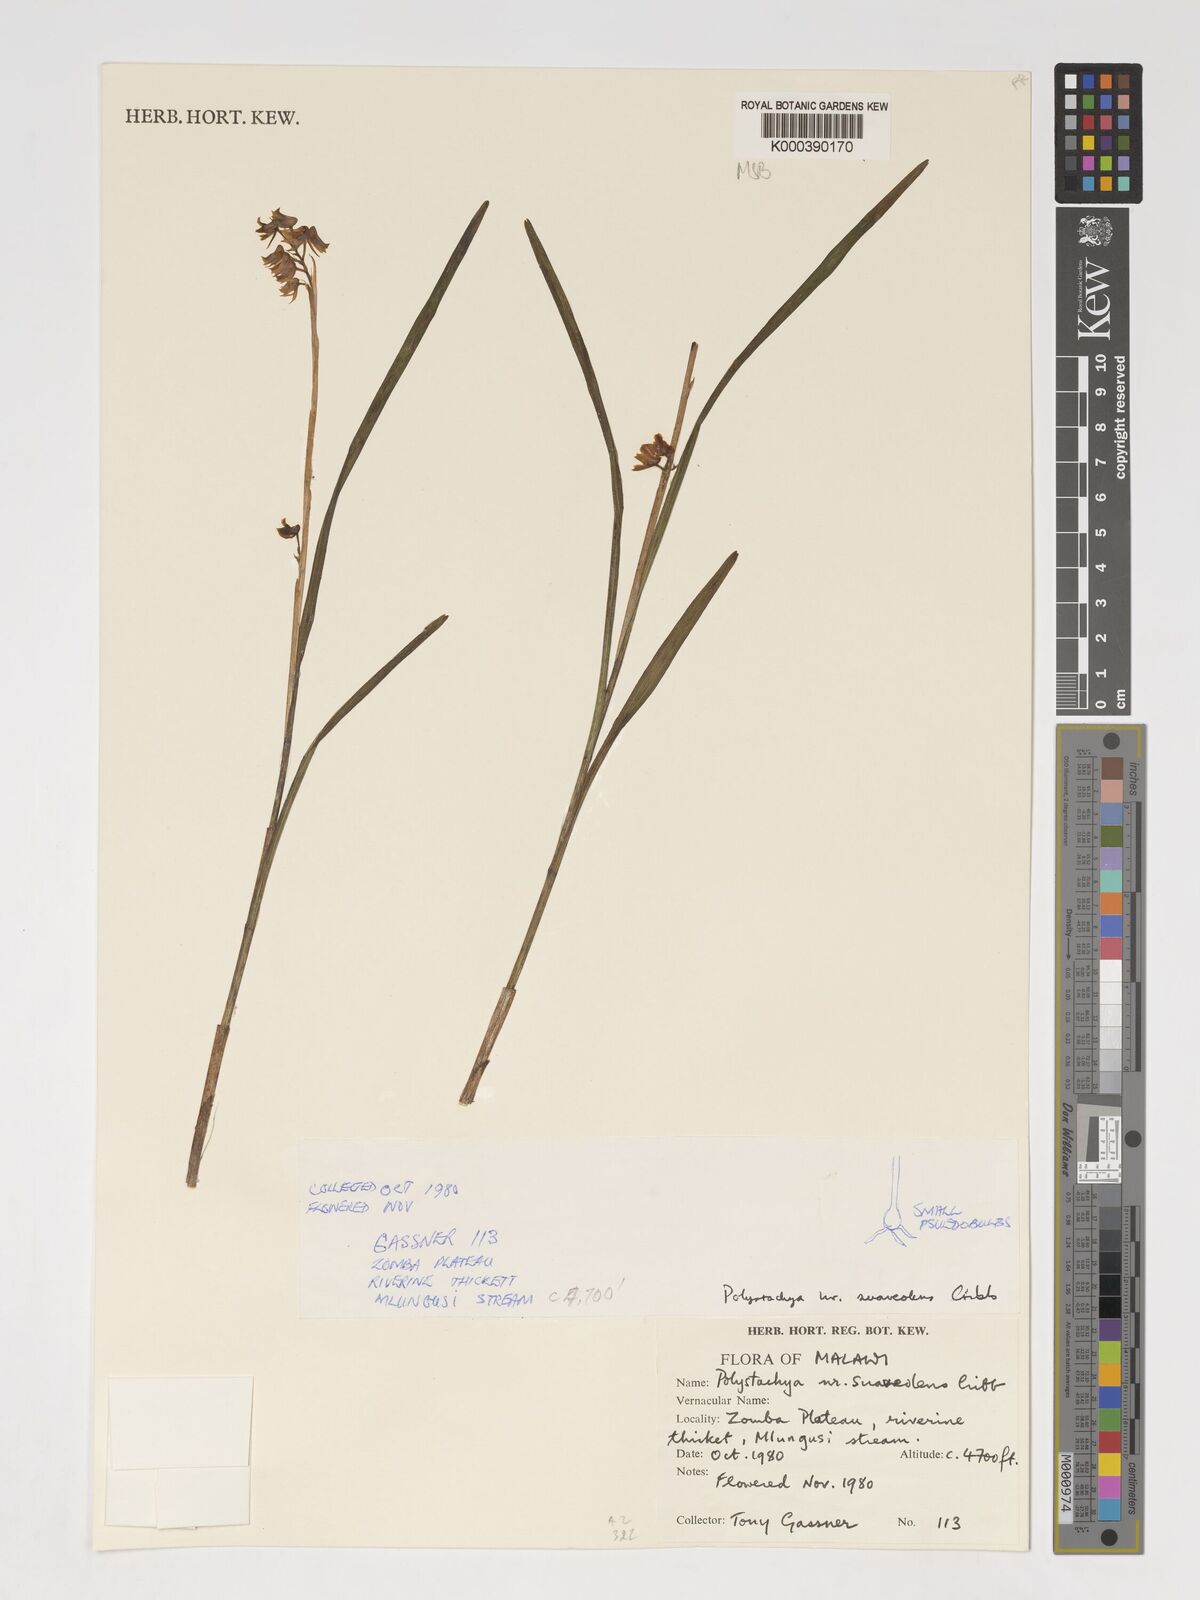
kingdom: Plantae
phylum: Tracheophyta
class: Liliopsida
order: Asparagales
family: Orchidaceae
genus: Polystachya
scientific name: Polystachya suaveolens
